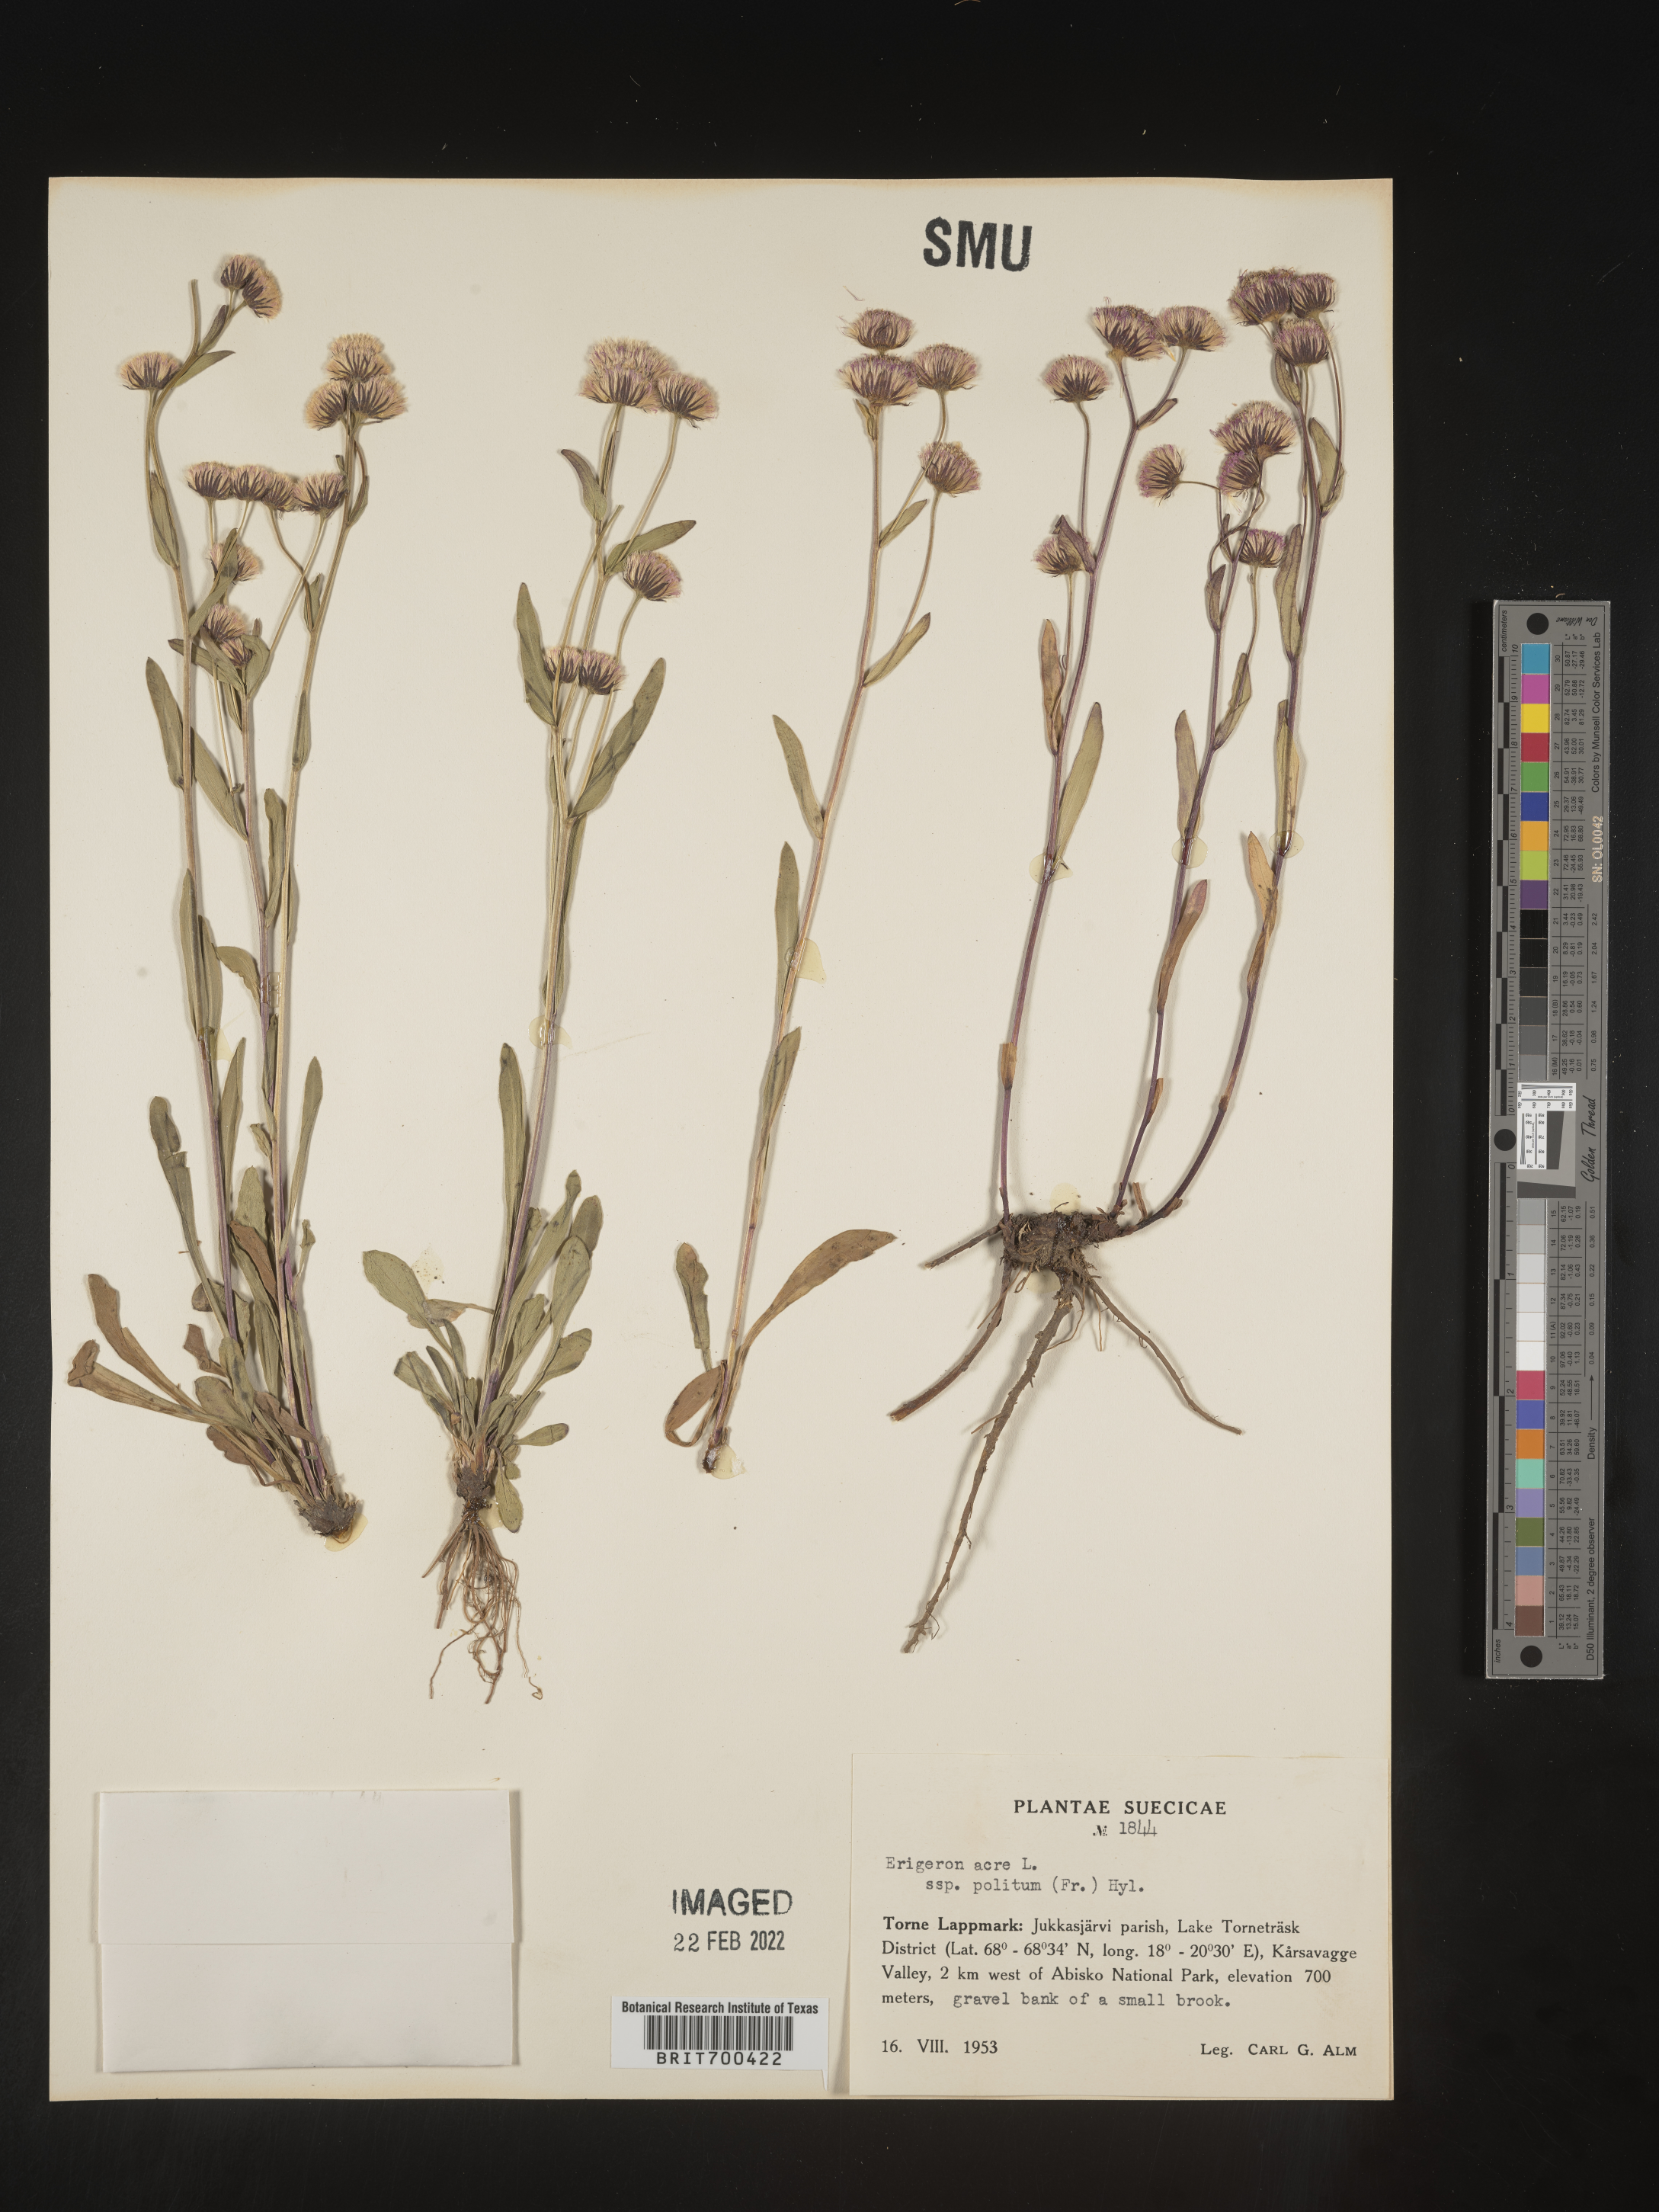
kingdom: Plantae
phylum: Tracheophyta
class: Magnoliopsida
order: Asterales
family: Asteraceae
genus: Erigeron
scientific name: Erigeron
